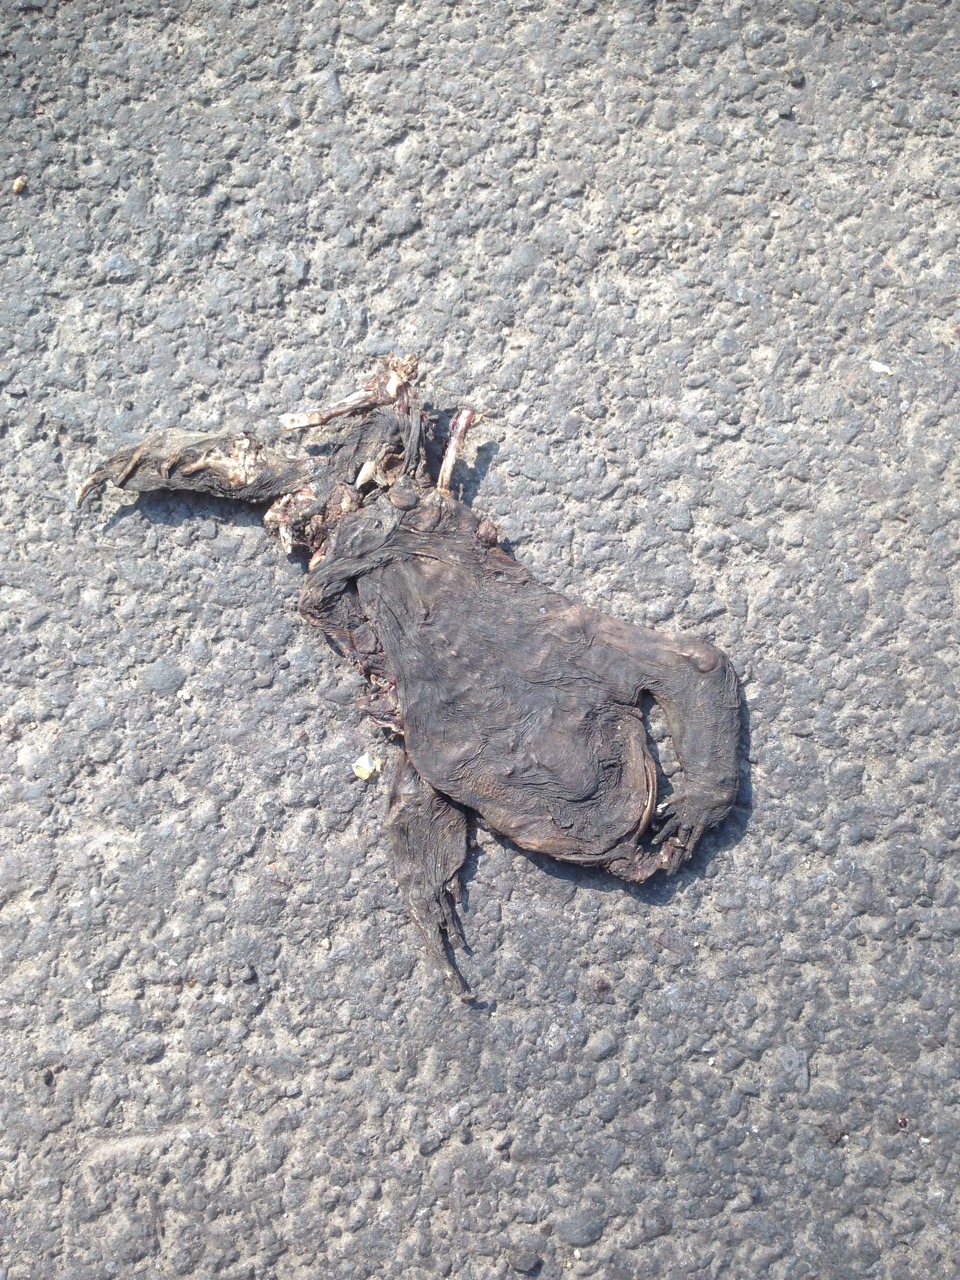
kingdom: Animalia
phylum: Chordata
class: Amphibia
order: Anura
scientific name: Anura
